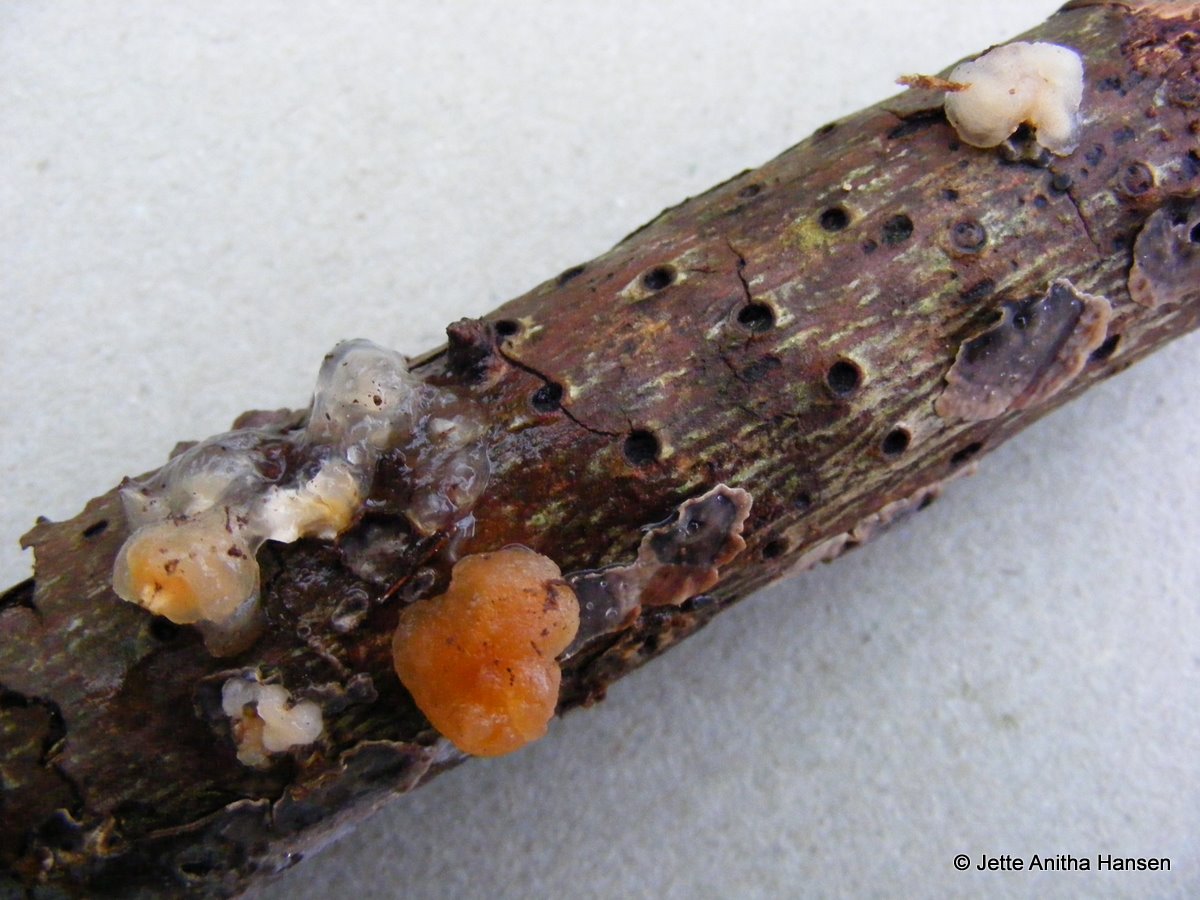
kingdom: Fungi
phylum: Basidiomycota
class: Tremellomycetes
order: Tremellales
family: Naemateliaceae
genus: Naematelia
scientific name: Naematelia encephala
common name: fyrre-bævresvamp
